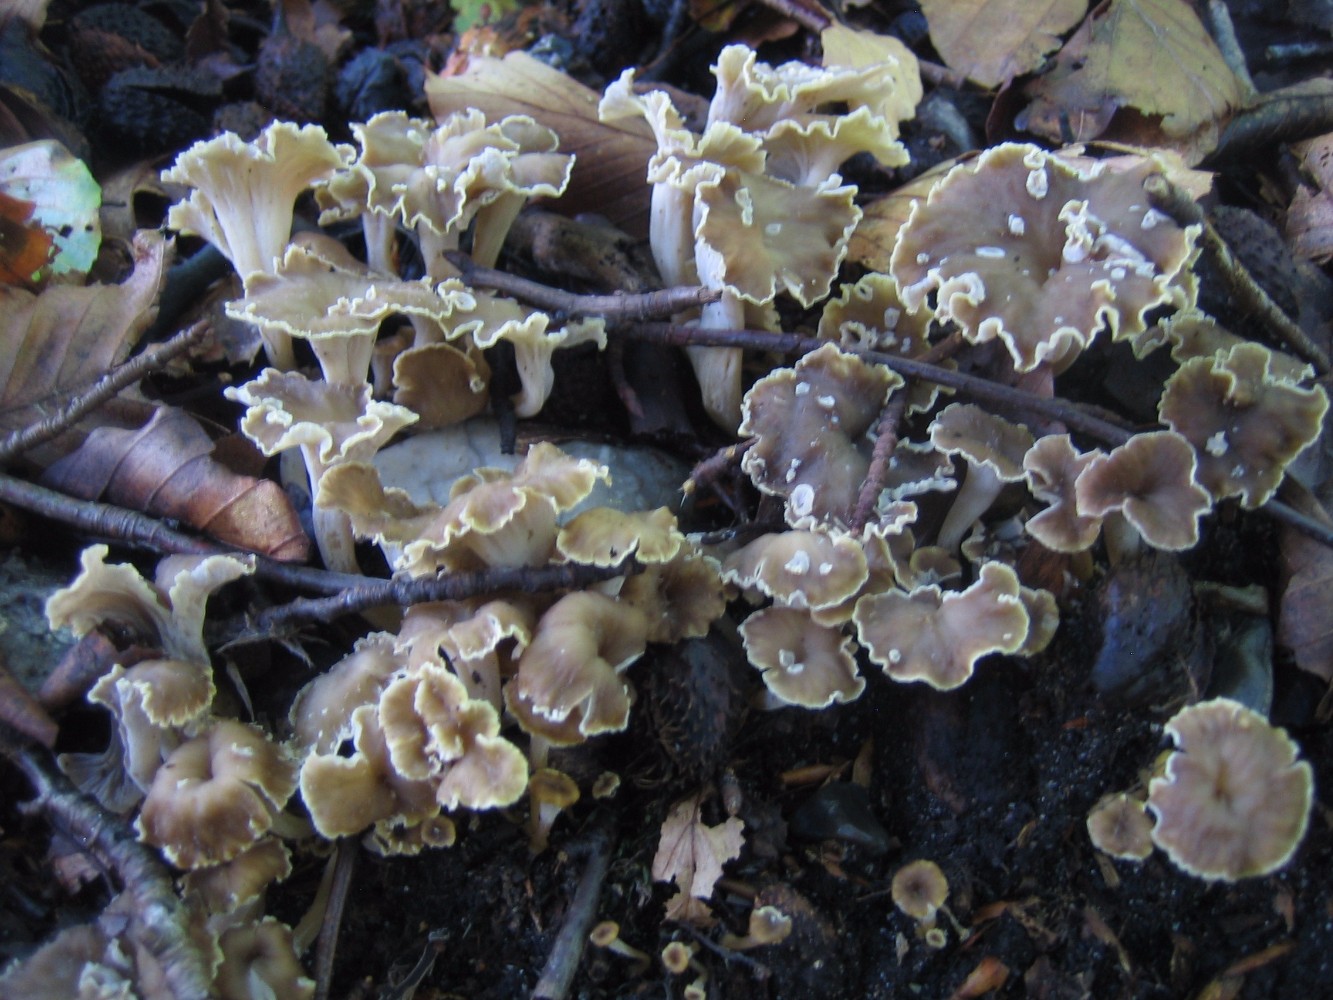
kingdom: Fungi
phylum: Basidiomycota
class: Agaricomycetes
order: Cantharellales
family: Hydnaceae
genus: Craterellus
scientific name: Craterellus undulatus
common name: liden kantarel
